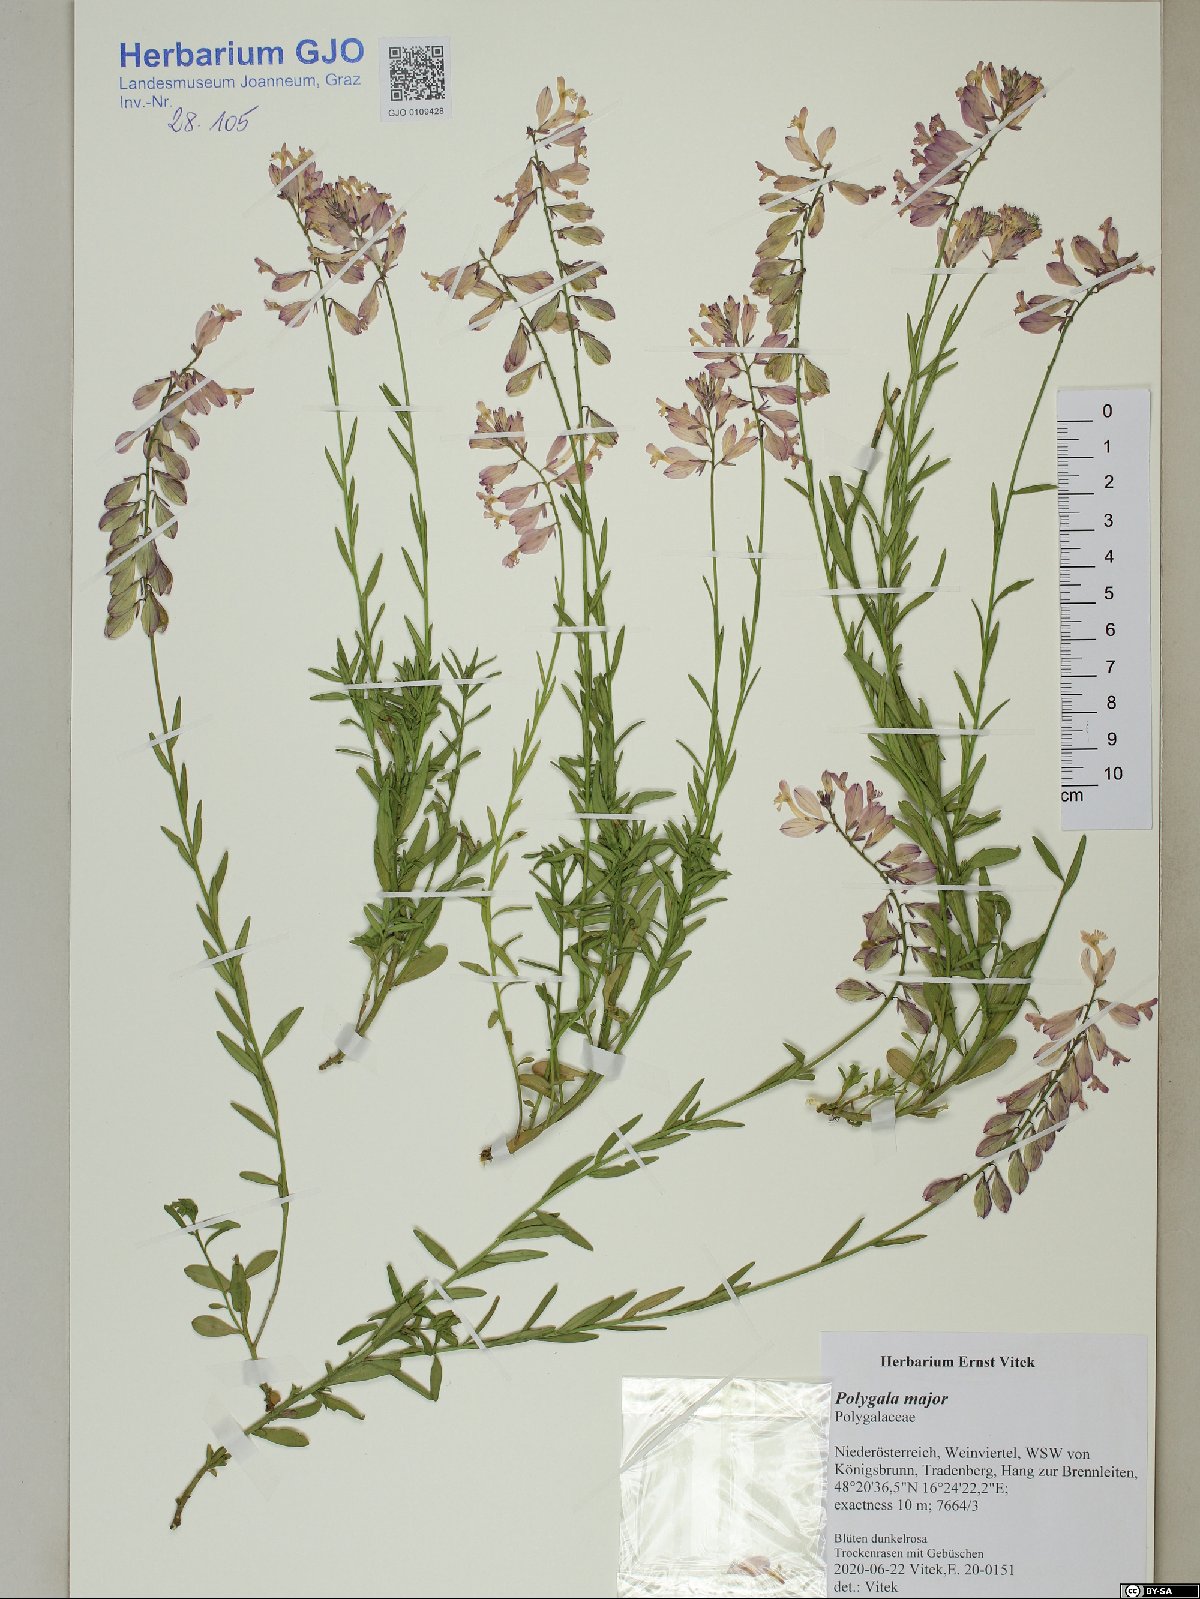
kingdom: Plantae
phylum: Tracheophyta
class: Magnoliopsida
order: Fabales
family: Polygalaceae
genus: Polygala
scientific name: Polygala major
